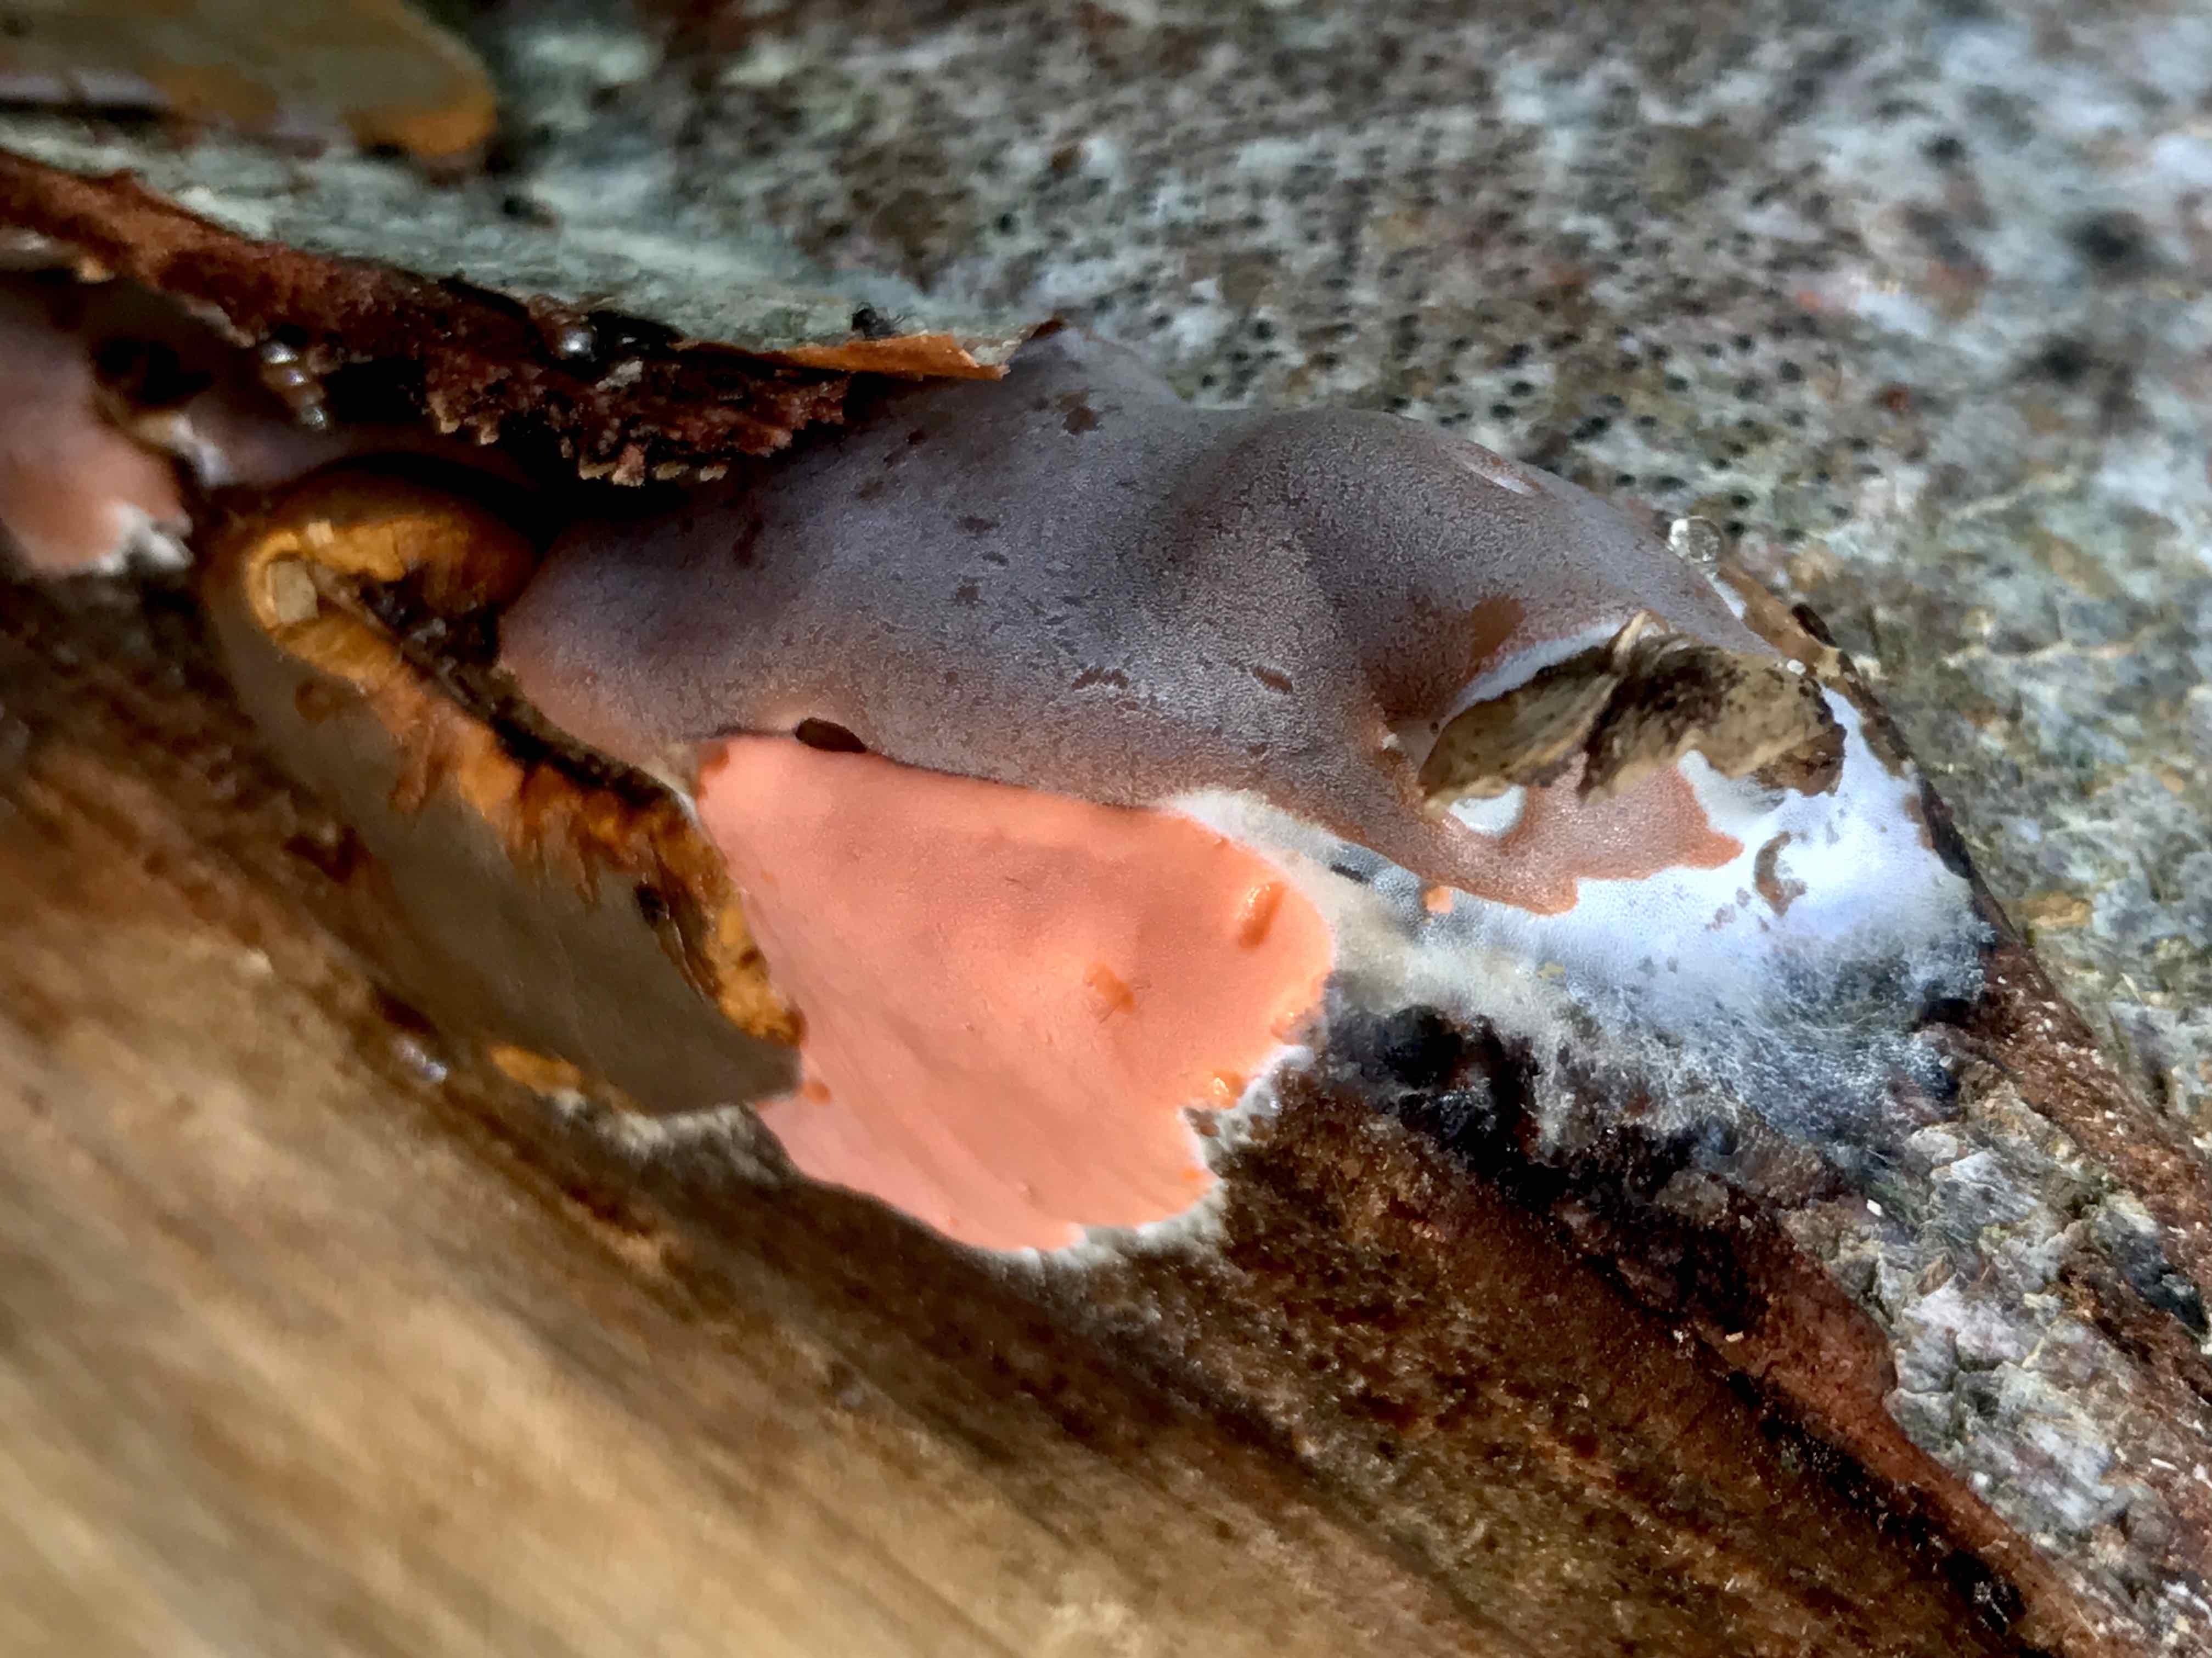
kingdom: Protozoa
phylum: Mycetozoa
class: Myxomycetes
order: Trichiales
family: Dictydiaethaliaceae
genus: Dictydiaethalium
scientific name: Dictydiaethalium plumbeum
